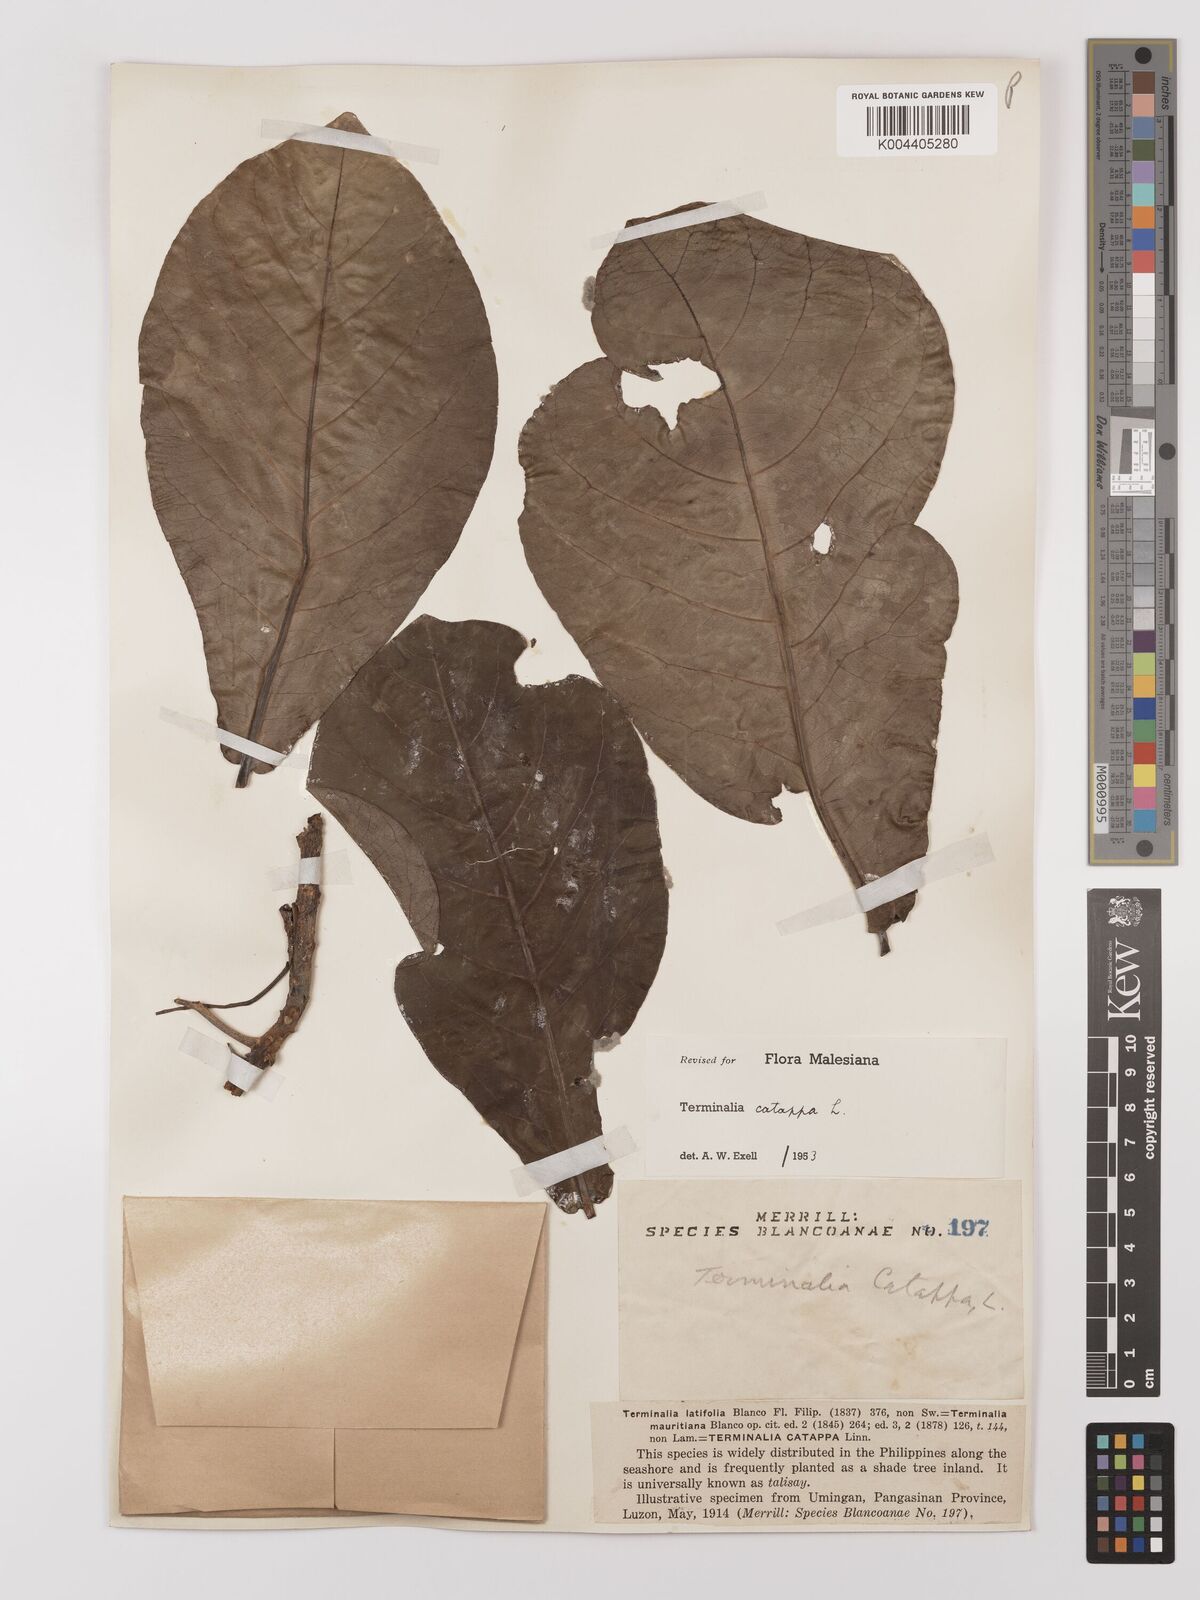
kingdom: Plantae
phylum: Tracheophyta
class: Magnoliopsida
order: Myrtales
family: Combretaceae
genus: Terminalia
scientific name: Terminalia catappa
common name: Tropical almond
